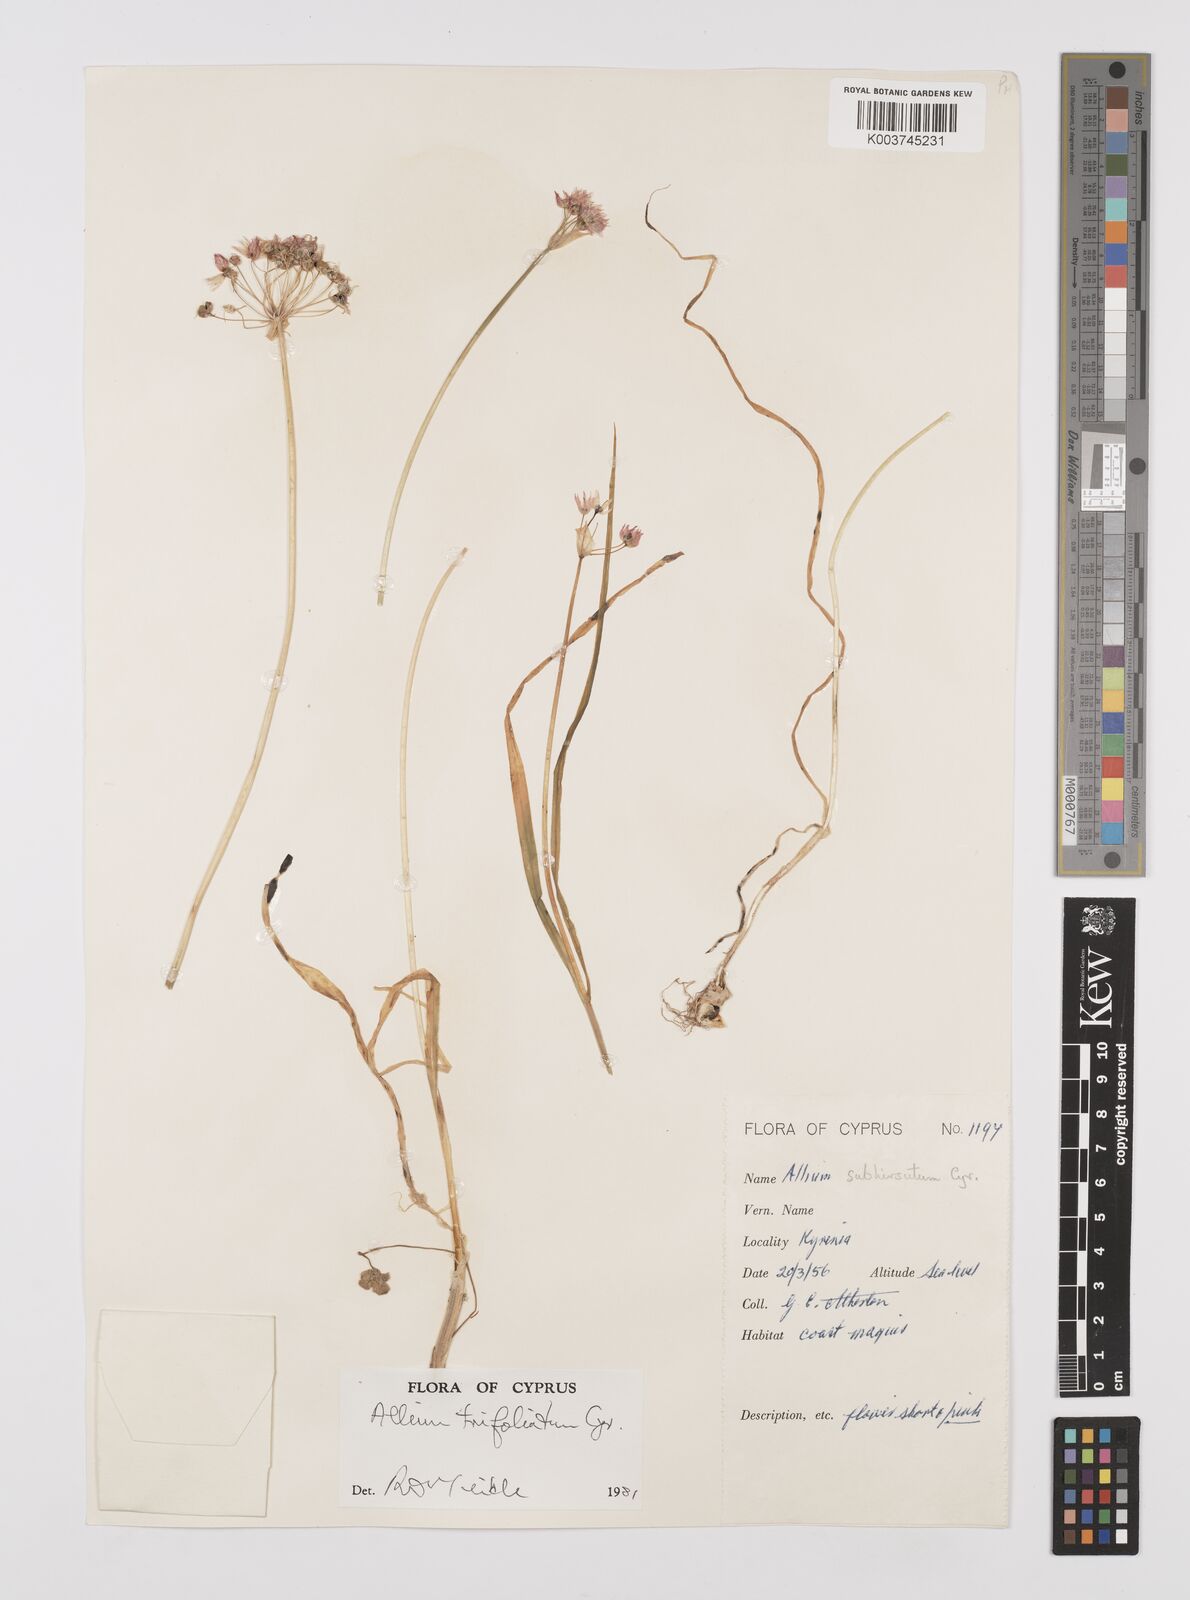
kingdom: Plantae
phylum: Tracheophyta
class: Liliopsida
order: Asparagales
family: Amaryllidaceae
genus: Allium
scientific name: Allium subhirsutum
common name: Hairy garlic
